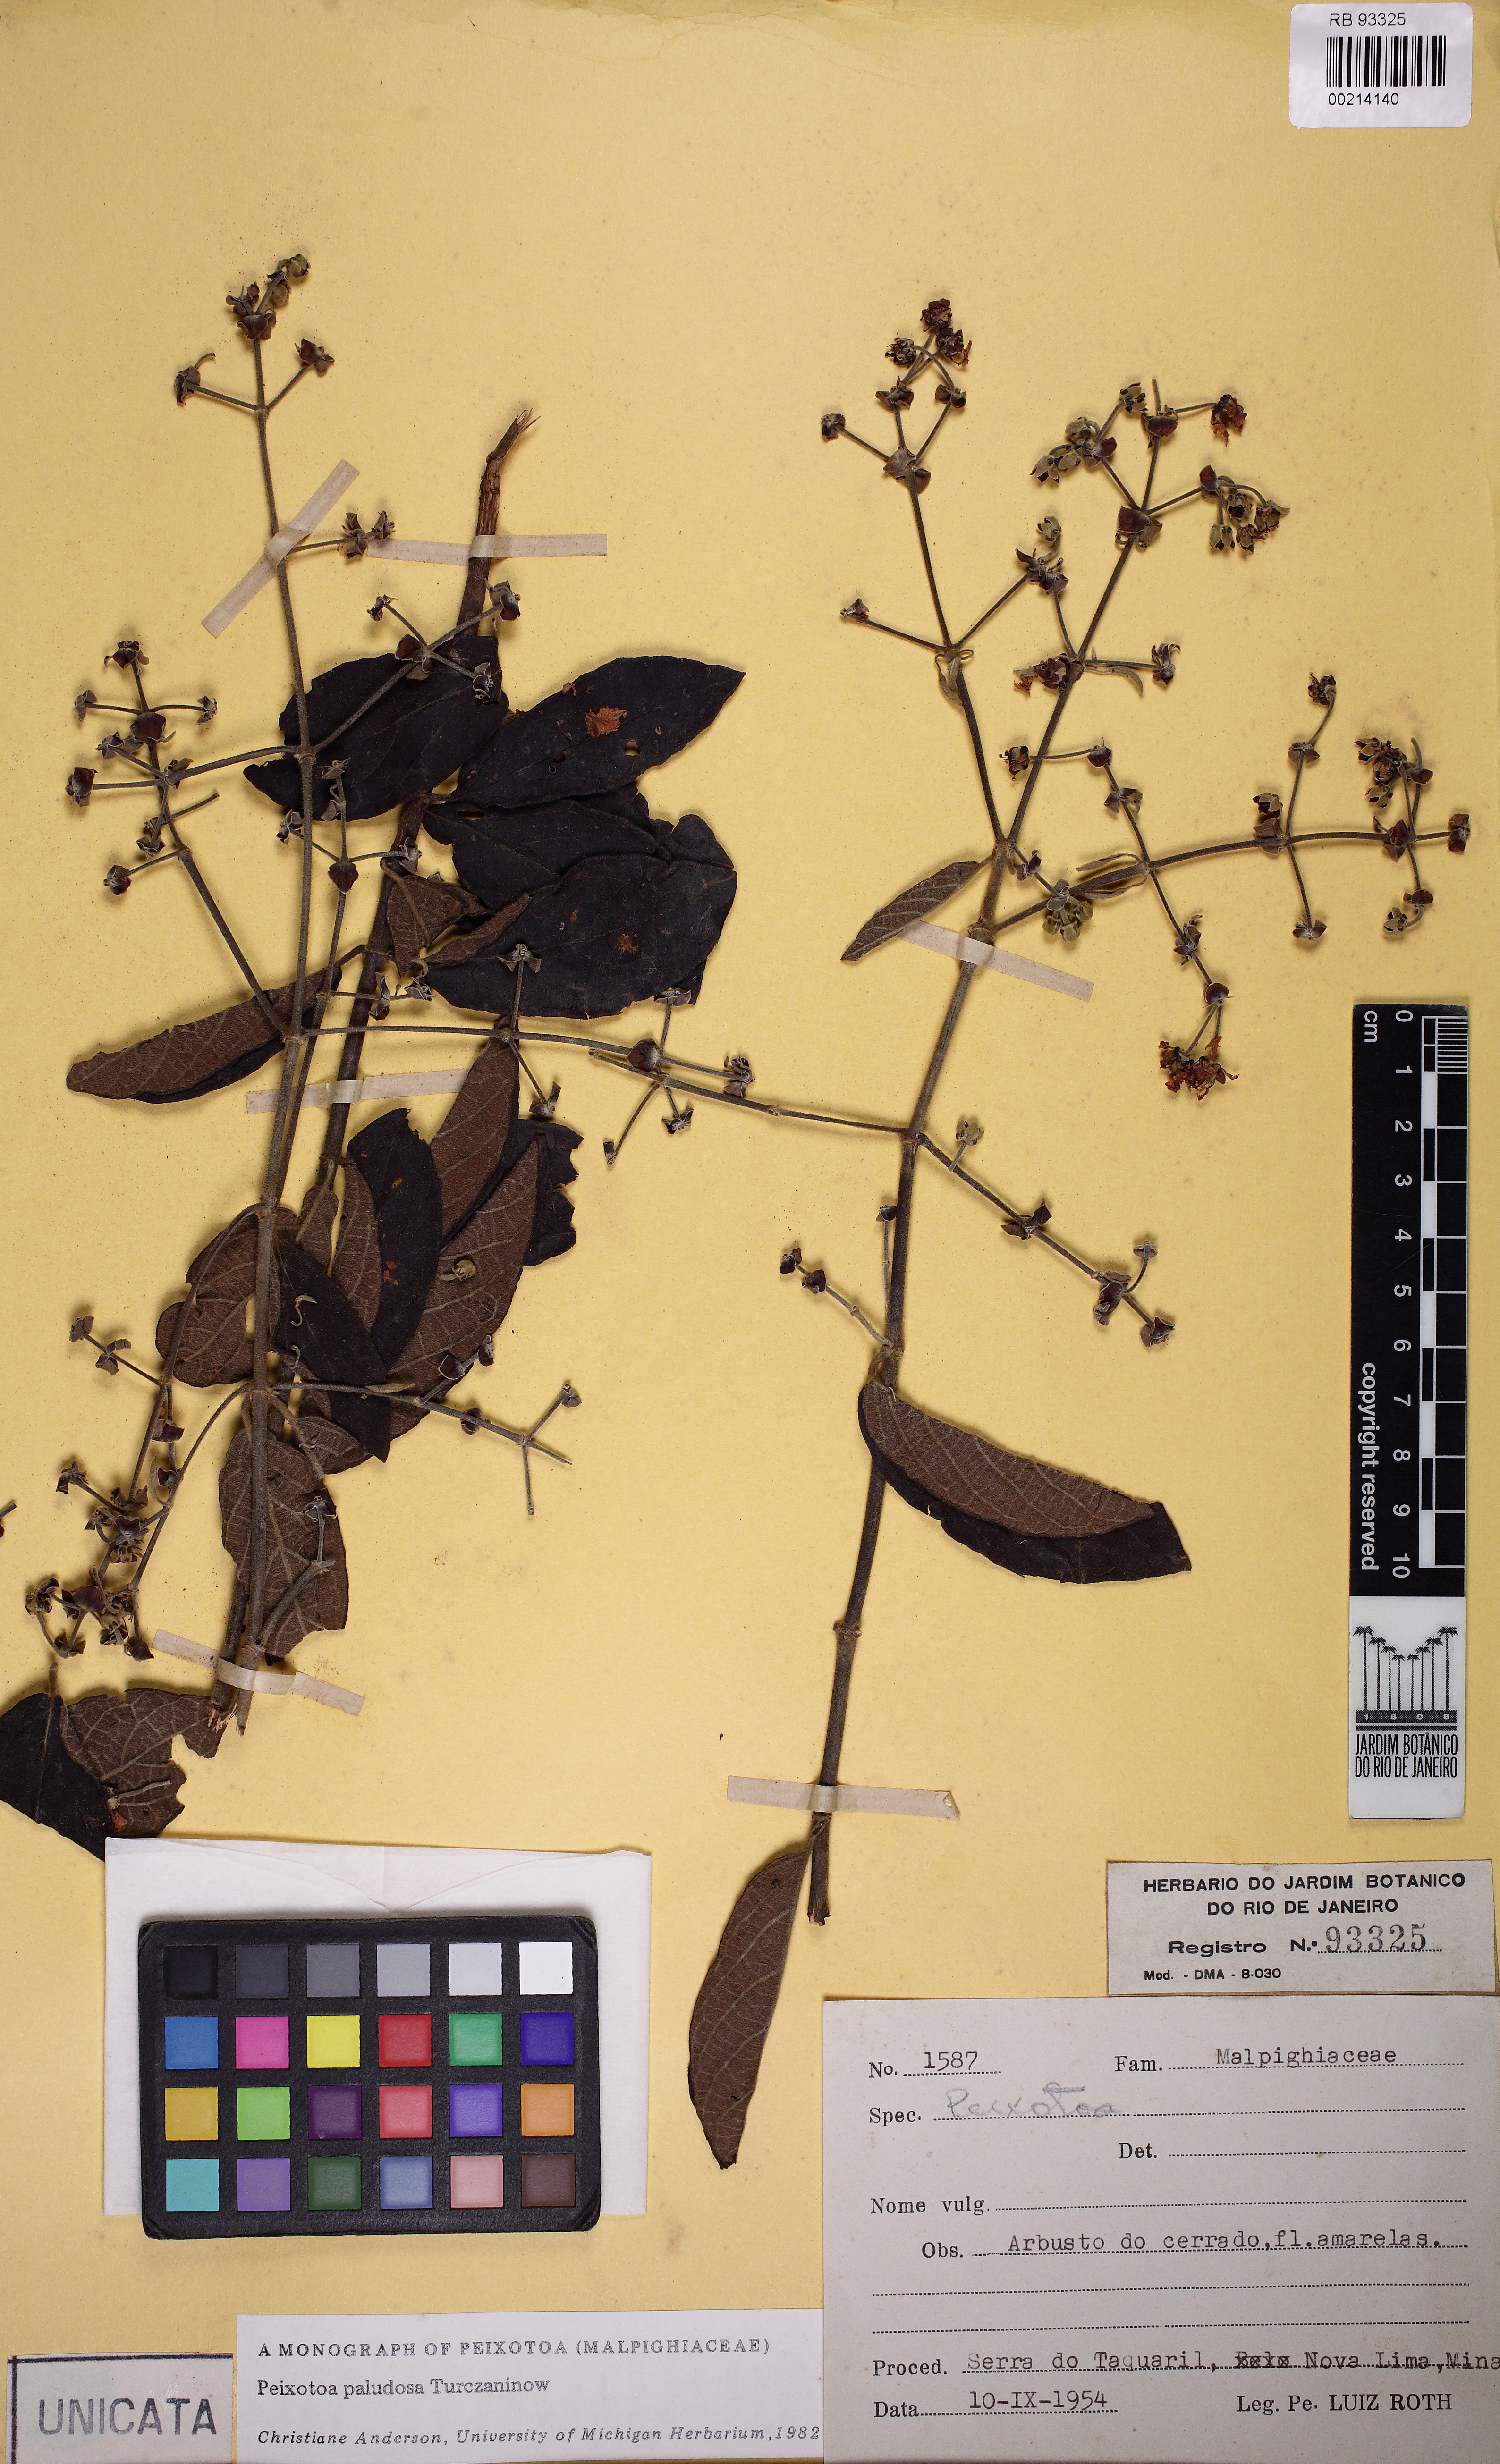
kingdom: Plantae
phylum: Tracheophyta
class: Magnoliopsida
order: Malpighiales
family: Malpighiaceae
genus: Peixotoa
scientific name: Peixotoa paludosa
